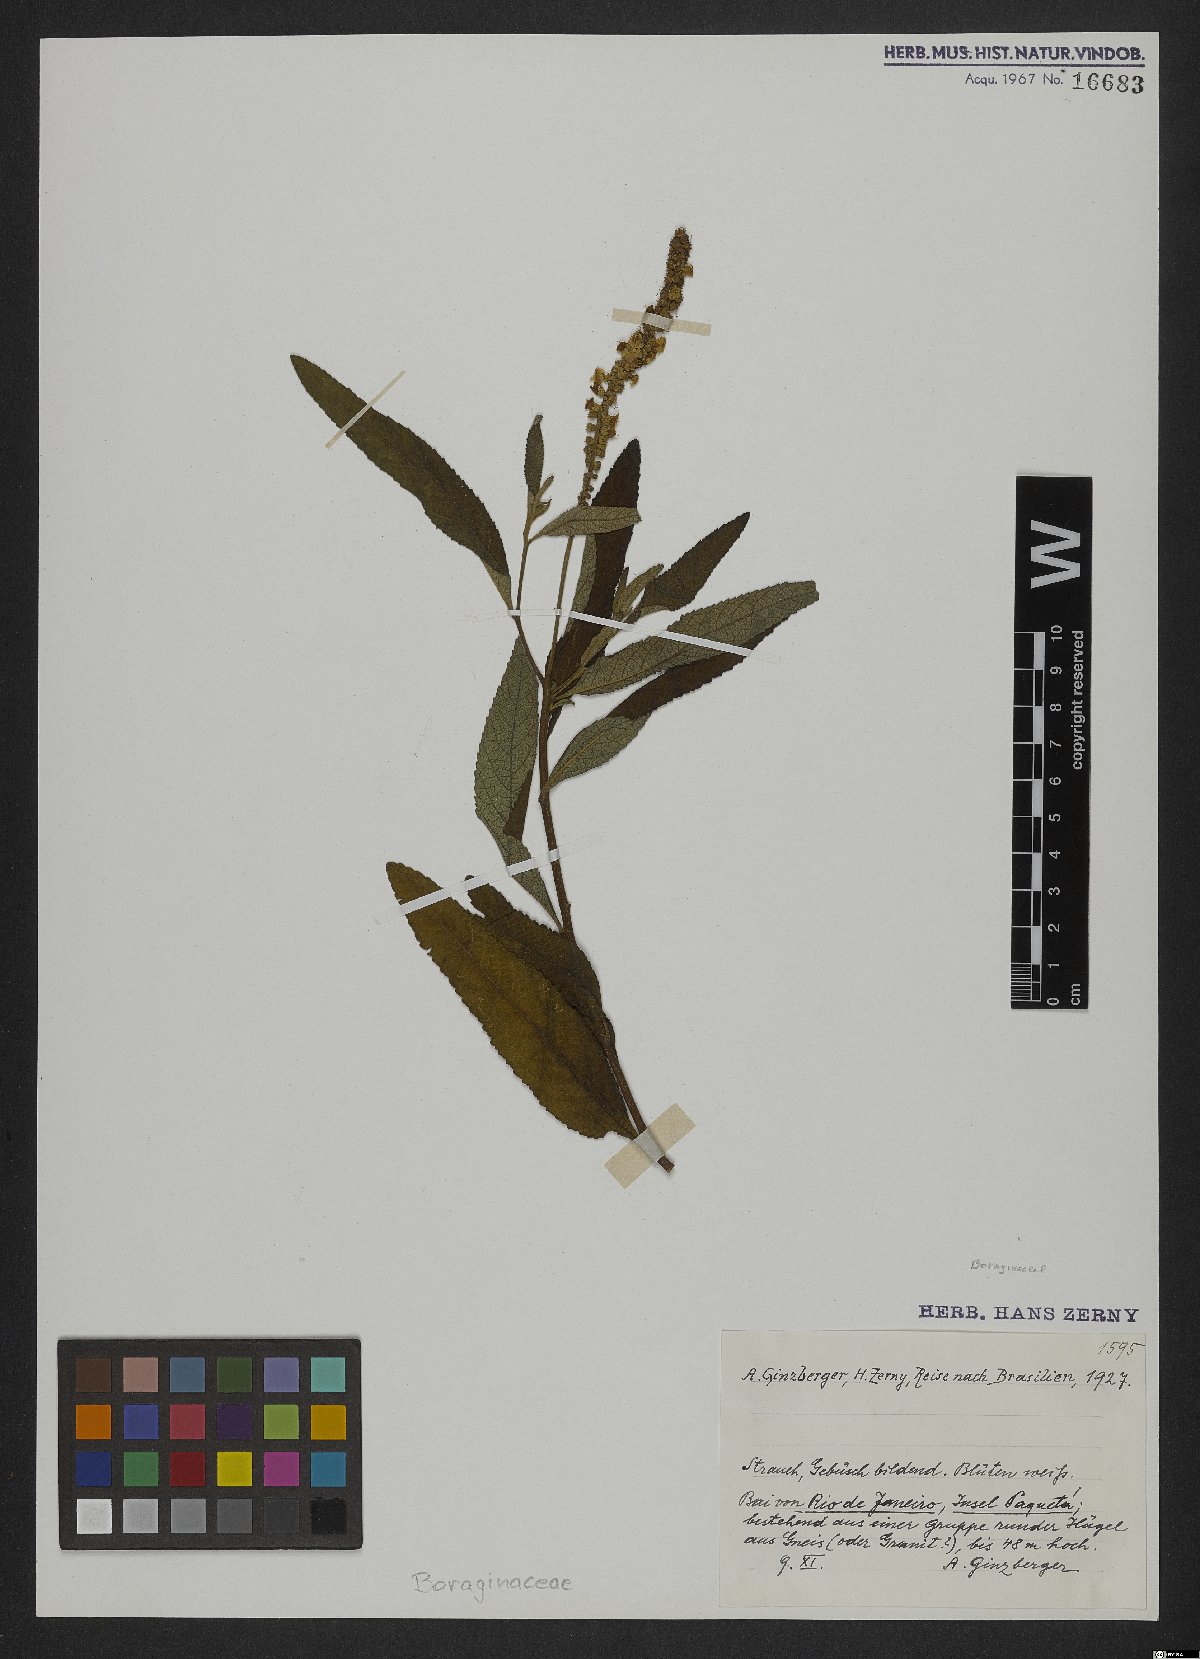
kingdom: Plantae
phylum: Tracheophyta
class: Magnoliopsida
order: Boraginales
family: Cordiaceae
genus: Cordia
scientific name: Cordia
